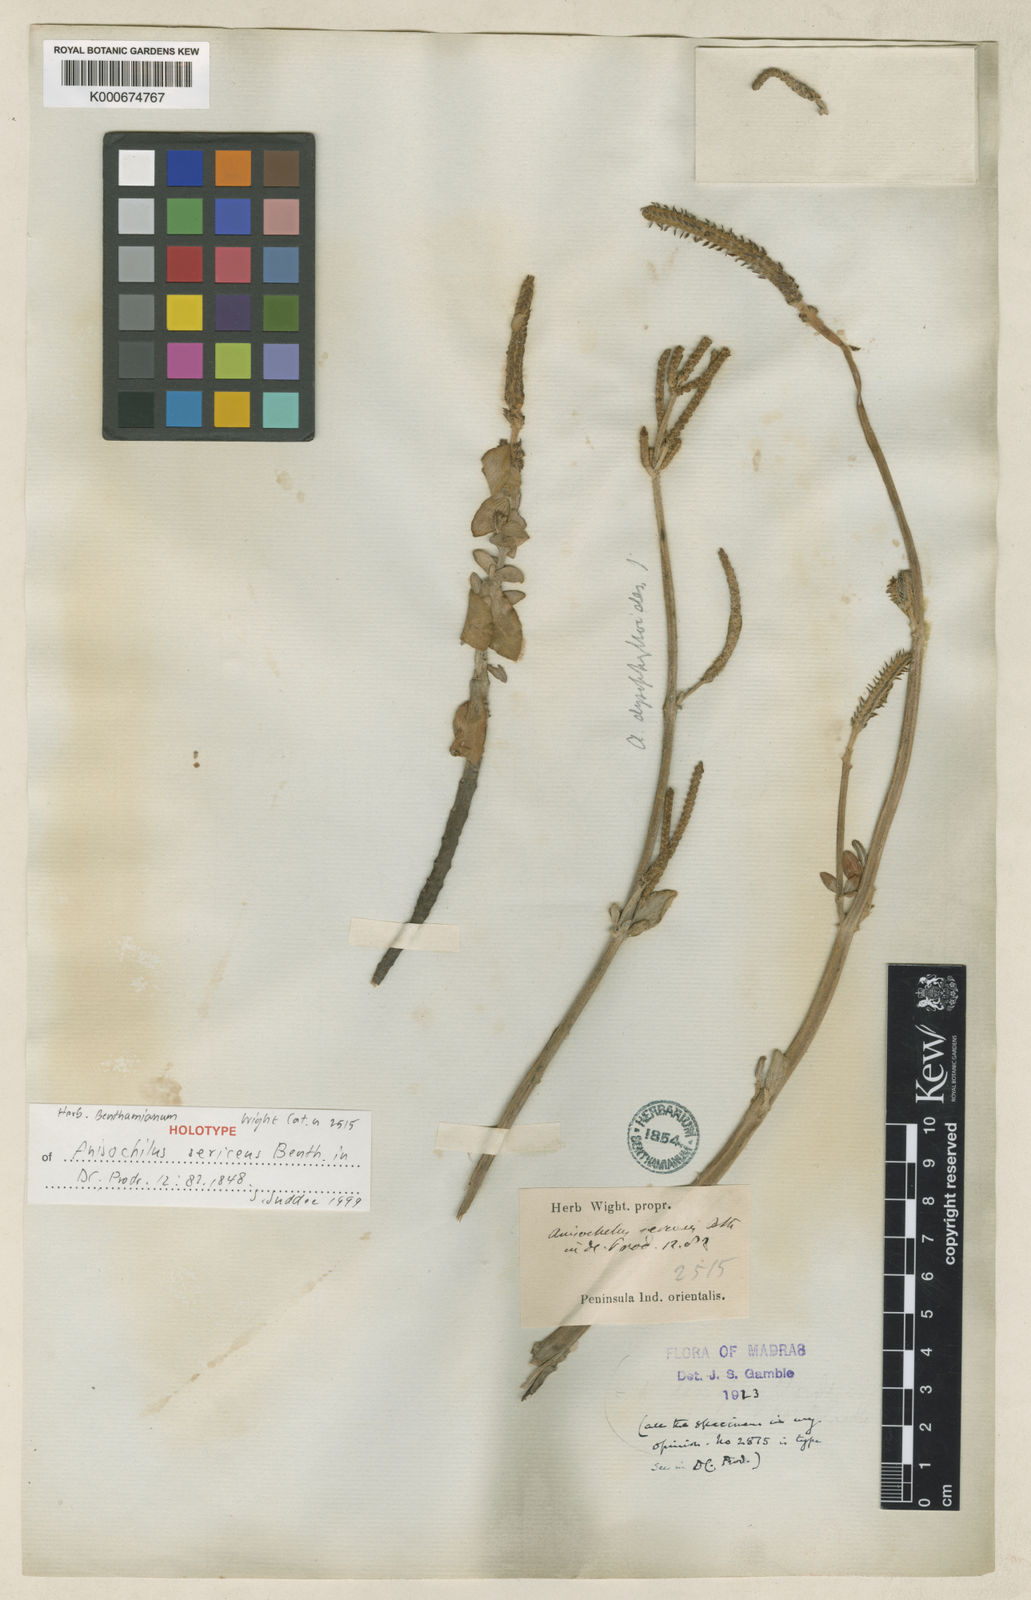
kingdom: Plantae
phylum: Tracheophyta
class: Magnoliopsida
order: Lamiales
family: Lamiaceae
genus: Coleus
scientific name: Coleus dysophylloides
